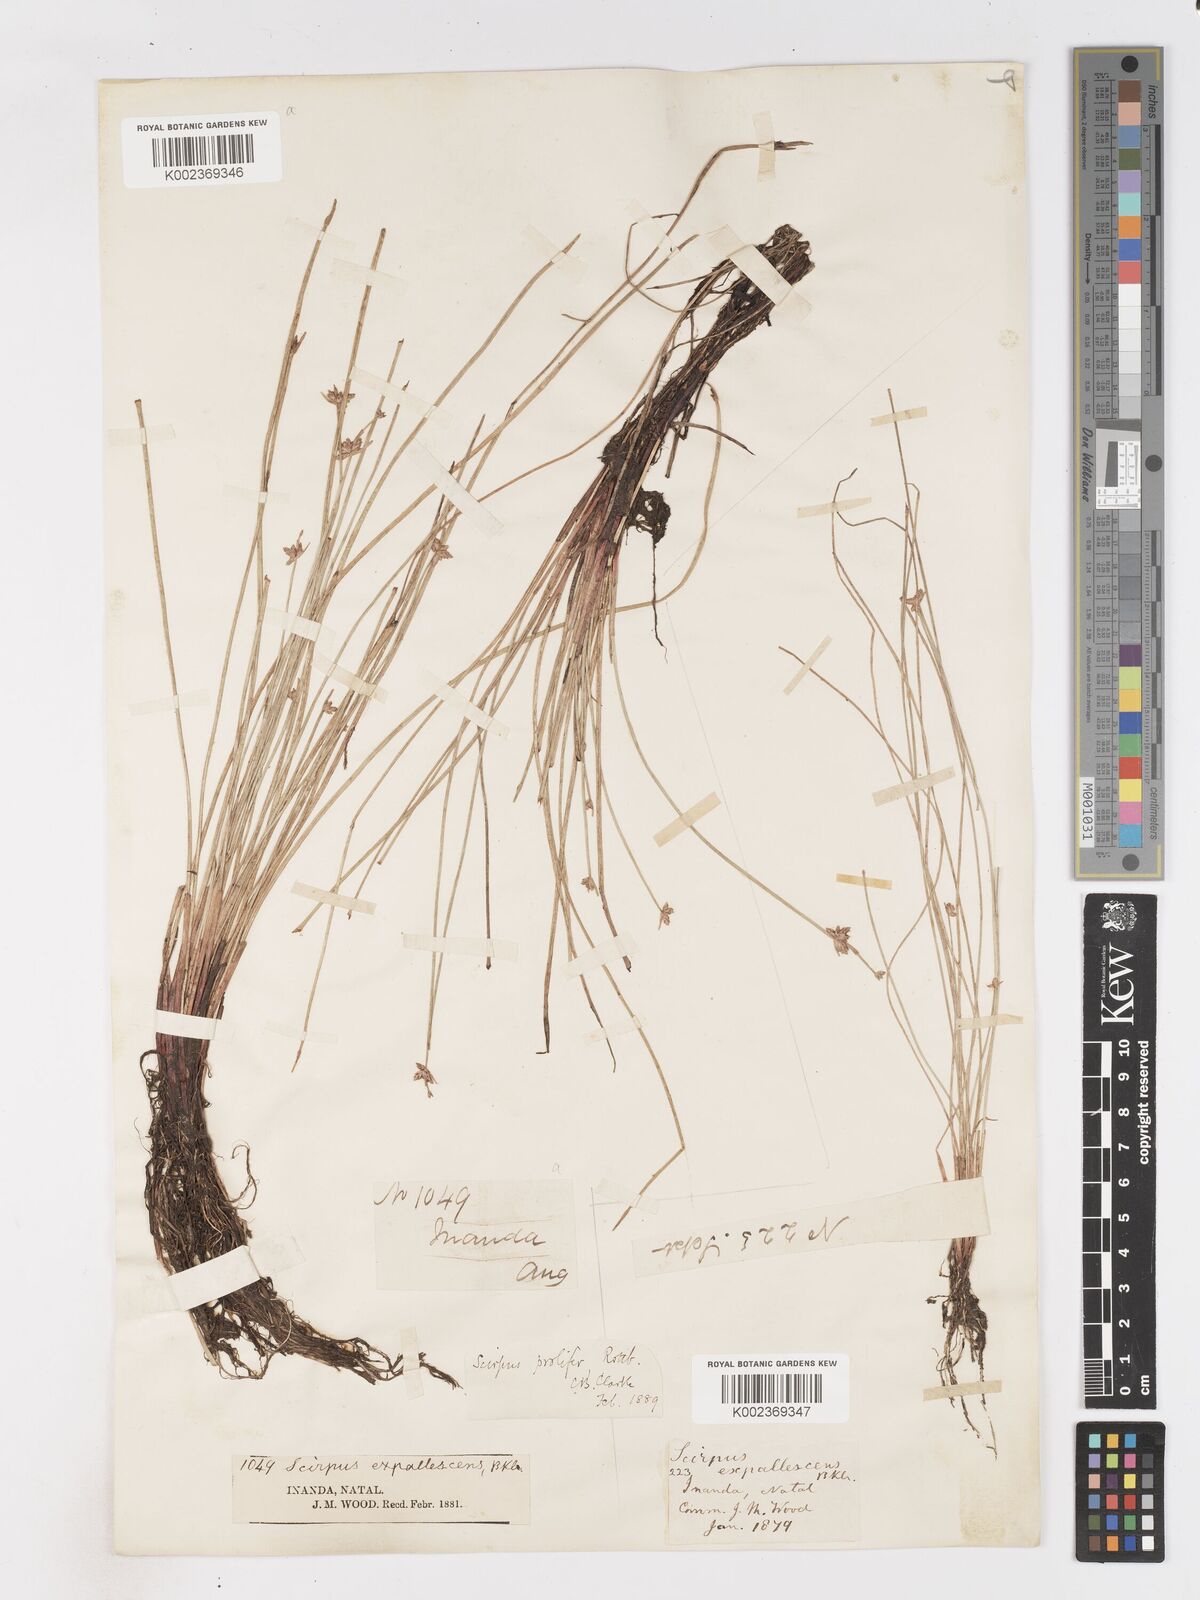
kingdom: Plantae
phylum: Tracheophyta
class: Liliopsida
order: Poales
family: Cyperaceae
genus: Isolepis
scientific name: Isolepis prolifera
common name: Proliferating bulrush
